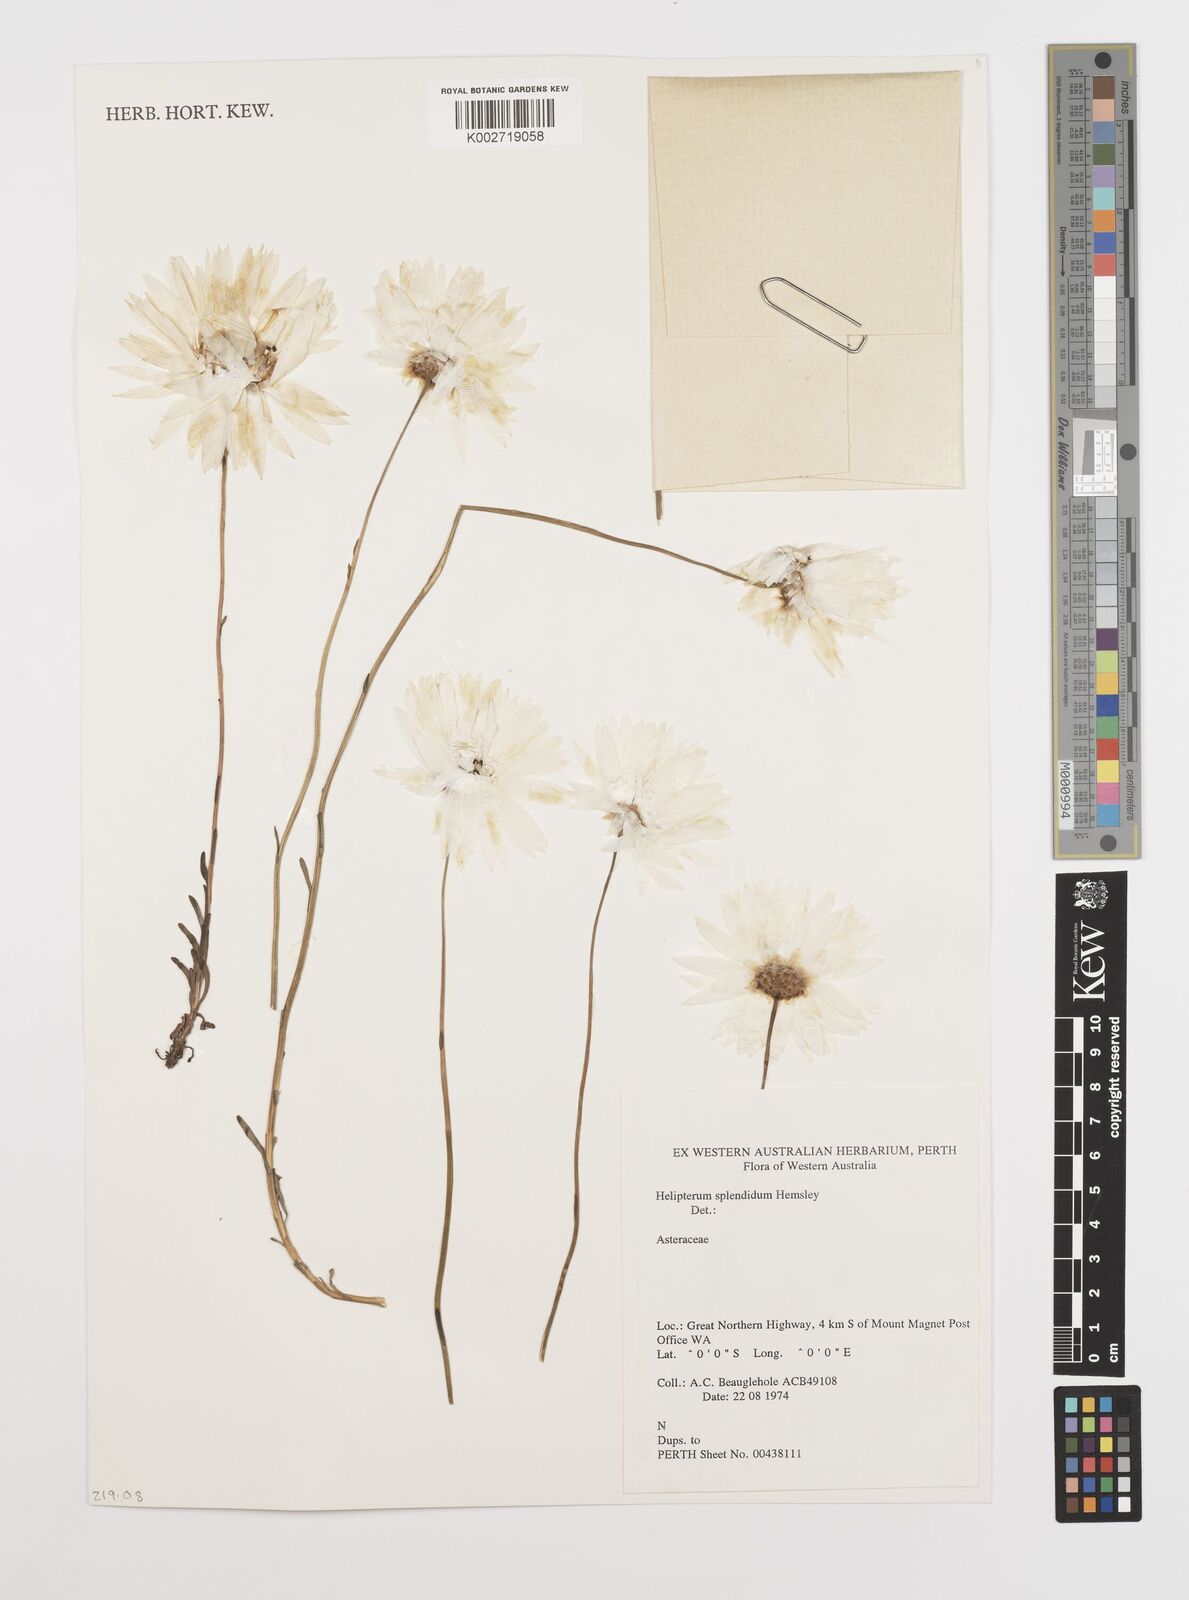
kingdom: Plantae
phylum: Tracheophyta
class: Magnoliopsida
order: Asterales
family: Asteraceae
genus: Rhodanthe
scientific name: Rhodanthe chlorocephala
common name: Rosy sunray
